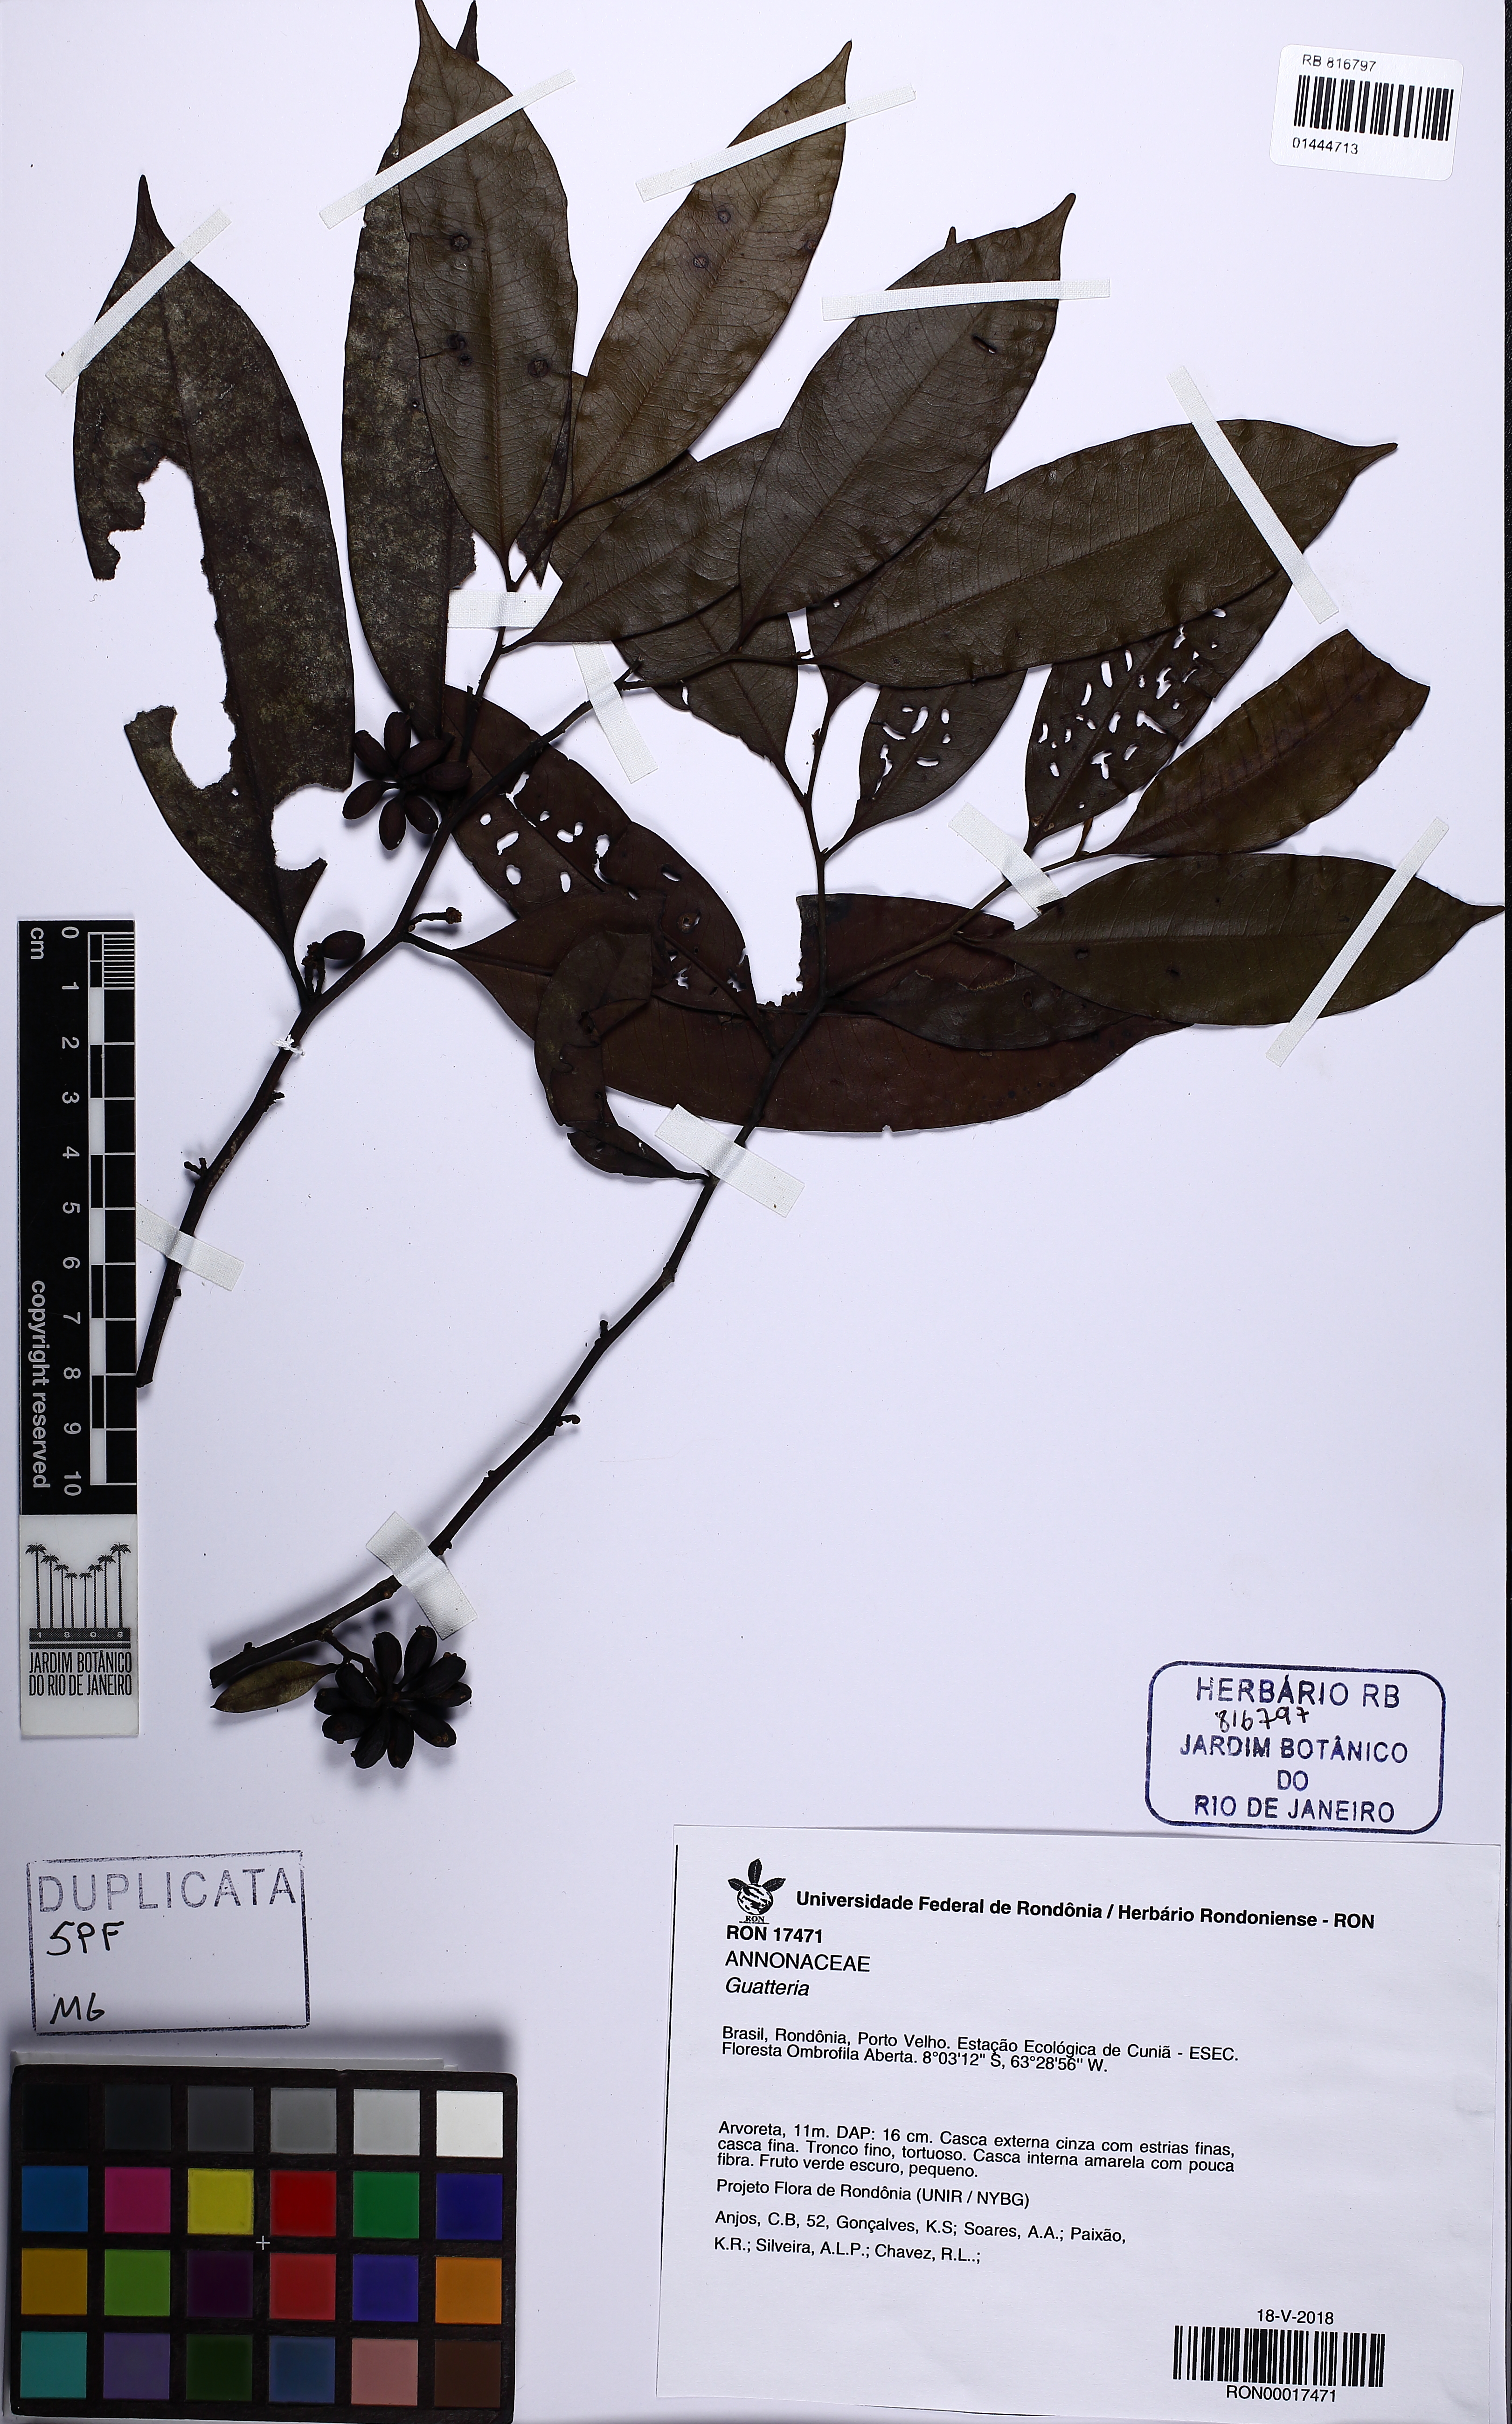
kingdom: Plantae
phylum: Tracheophyta
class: Magnoliopsida
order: Magnoliales
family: Annonaceae
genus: Guatteria
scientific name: Guatteria
